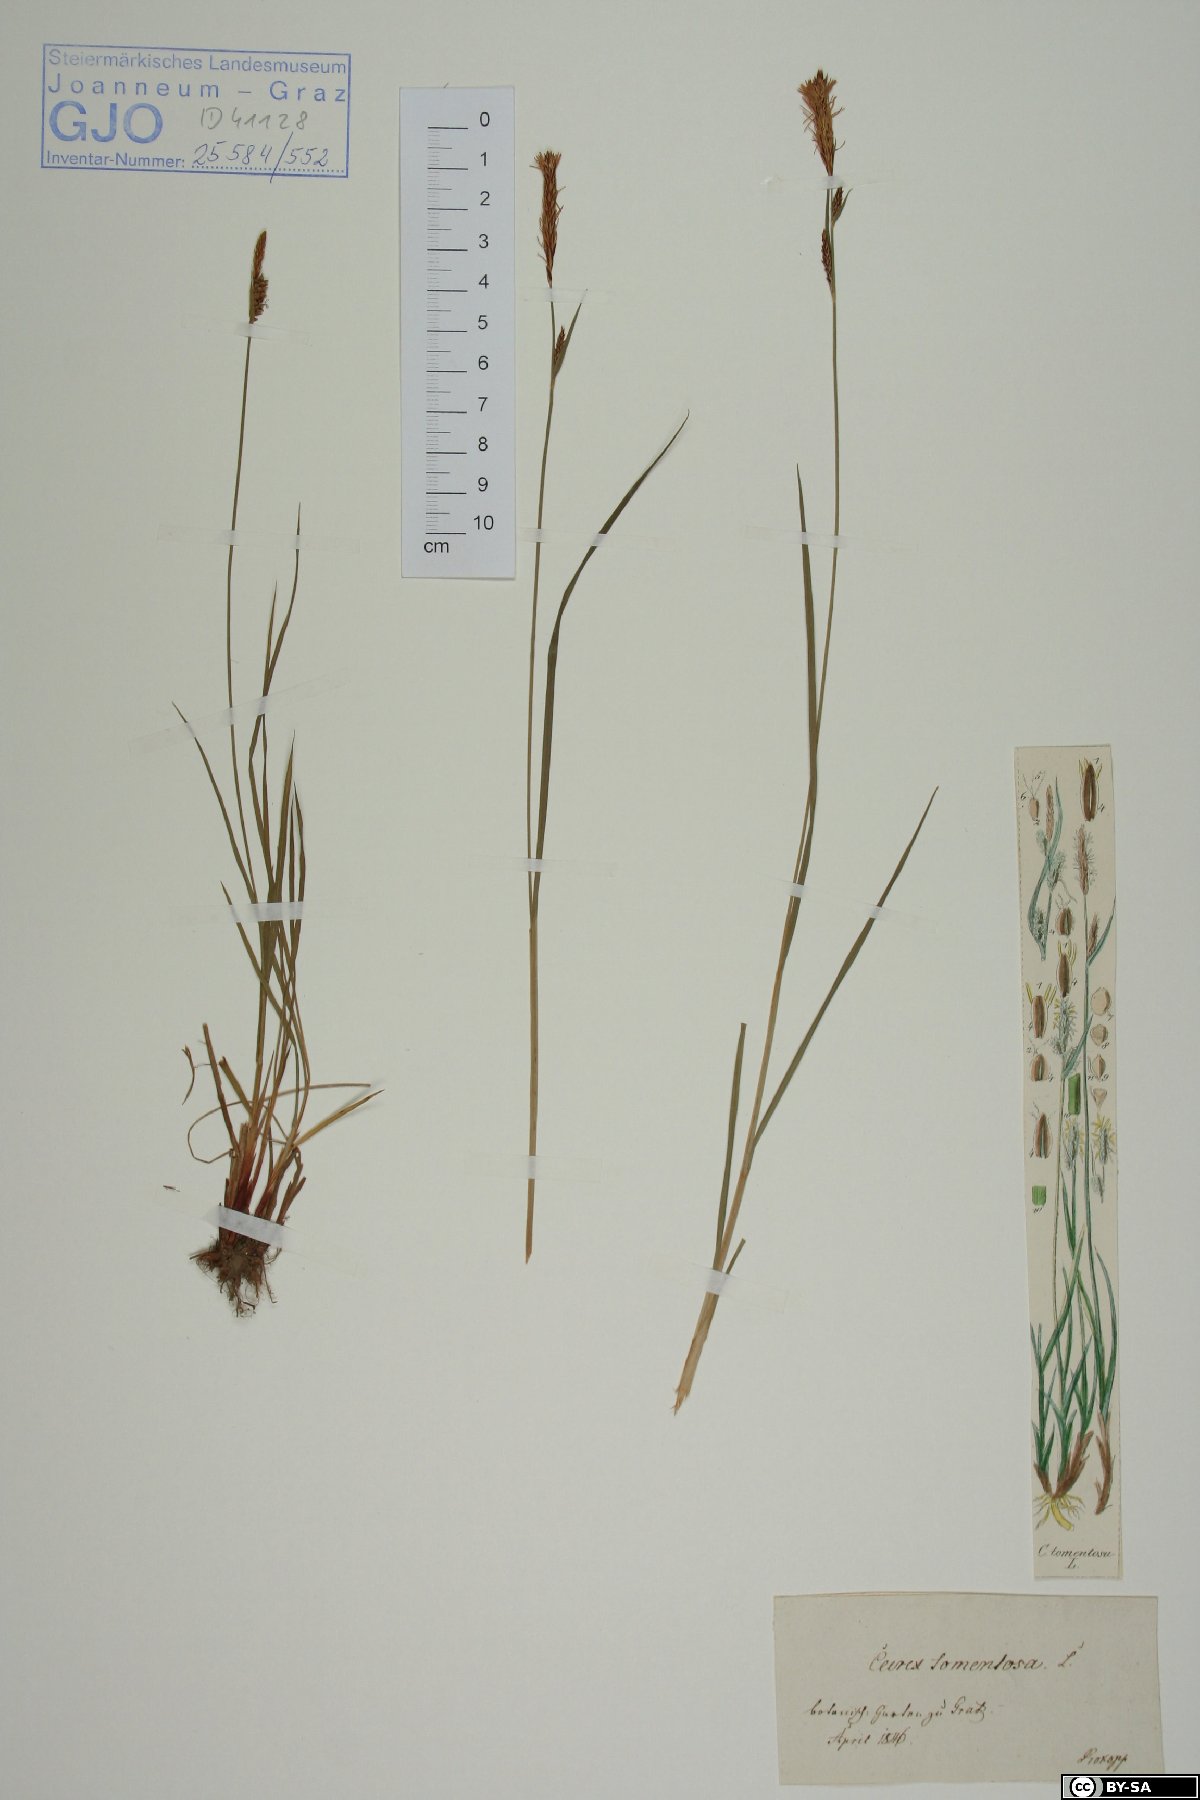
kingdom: Plantae
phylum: Tracheophyta
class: Liliopsida
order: Poales
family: Cyperaceae
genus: Carex
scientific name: Carex tomentosa
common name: Downy-fruited sedge
